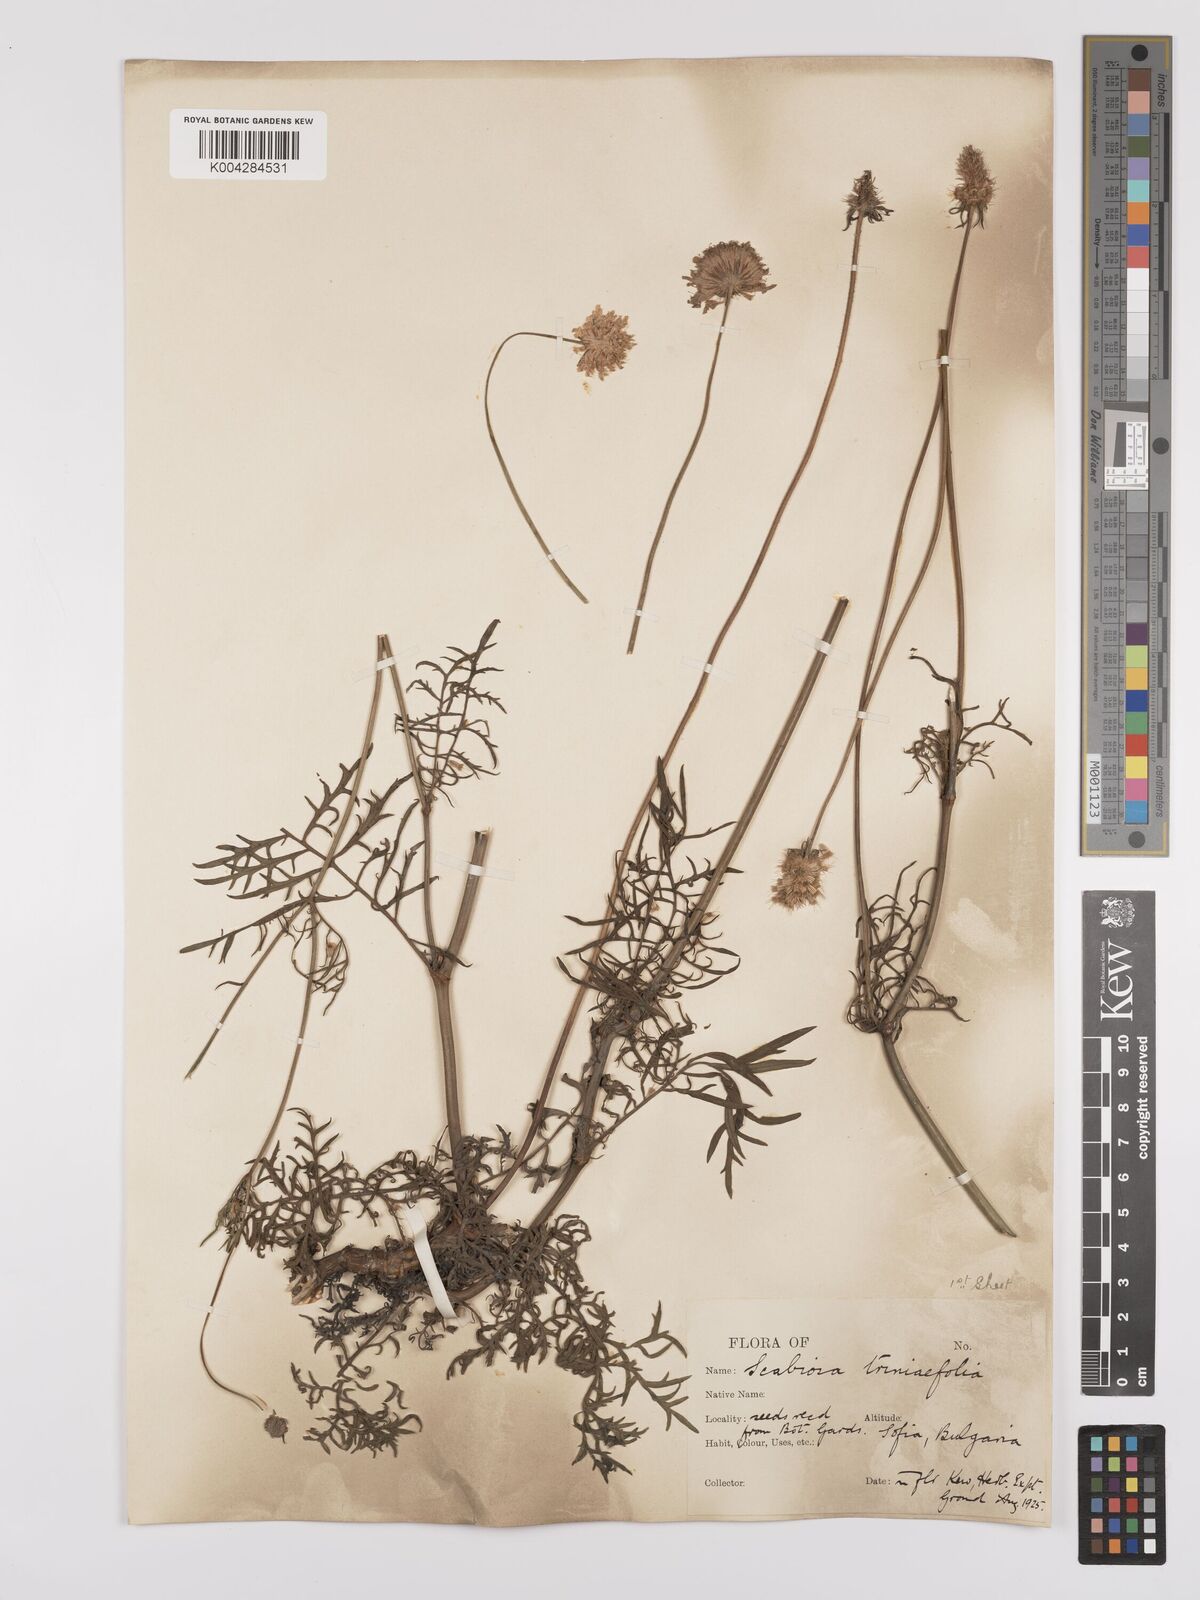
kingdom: Plantae
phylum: Tracheophyta
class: Magnoliopsida
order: Dipsacales
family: Caprifoliaceae
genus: Scabiosa
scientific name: Scabiosa triniifolia
